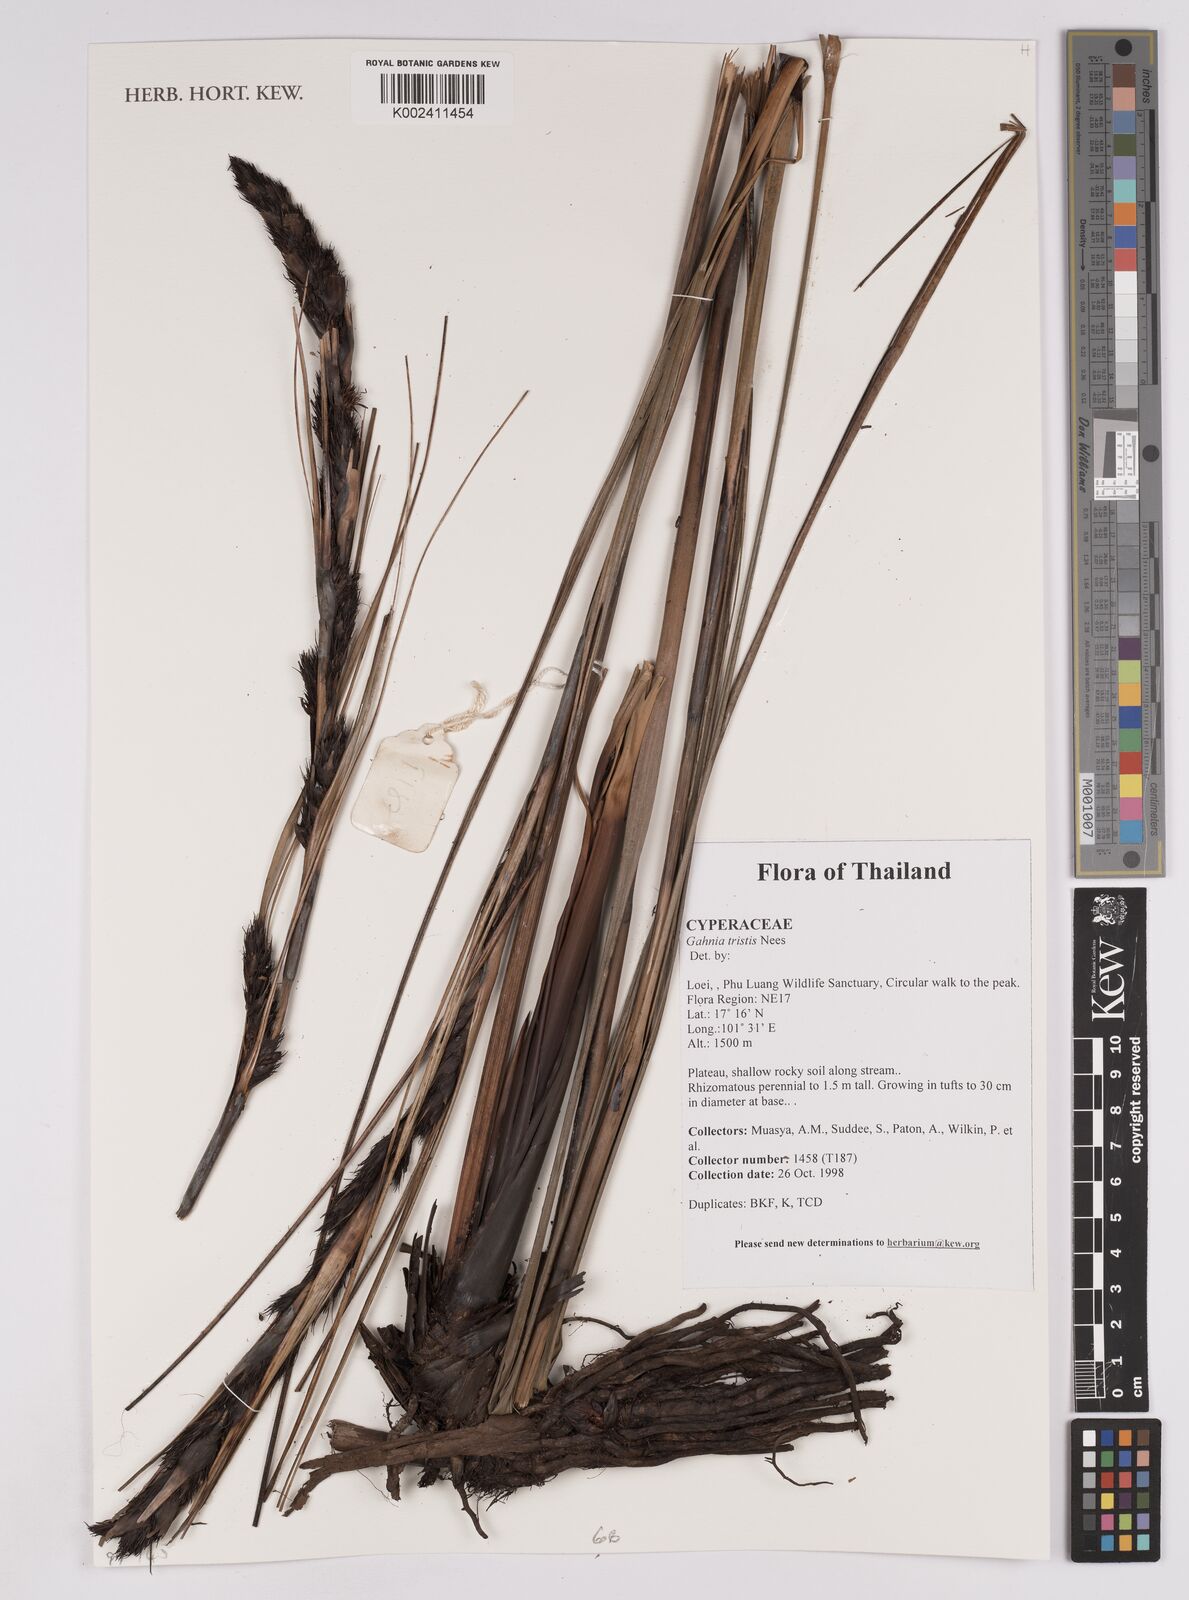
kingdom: Plantae
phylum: Tracheophyta
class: Liliopsida
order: Poales
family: Cyperaceae
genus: Gahnia
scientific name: Gahnia tristis
